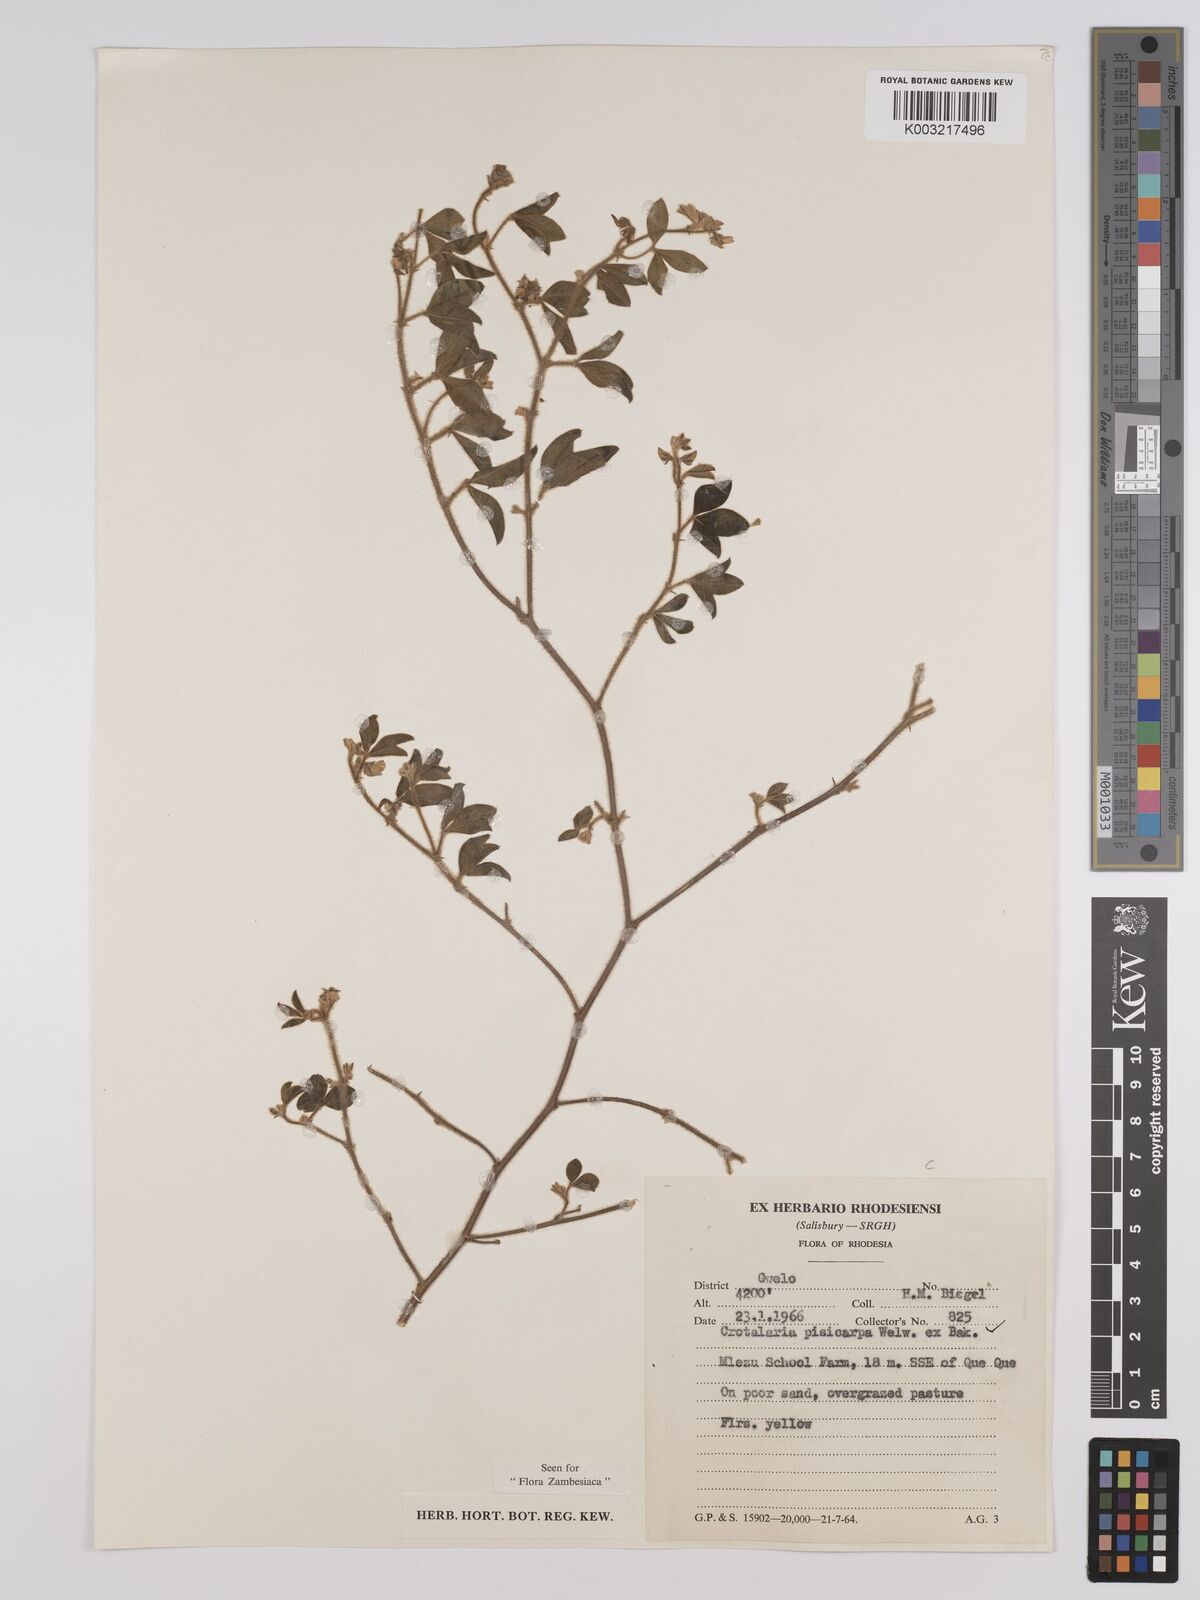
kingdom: Plantae
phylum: Tracheophyta
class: Magnoliopsida
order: Fabales
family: Fabaceae
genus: Crotalaria
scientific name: Crotalaria pisicarpa
